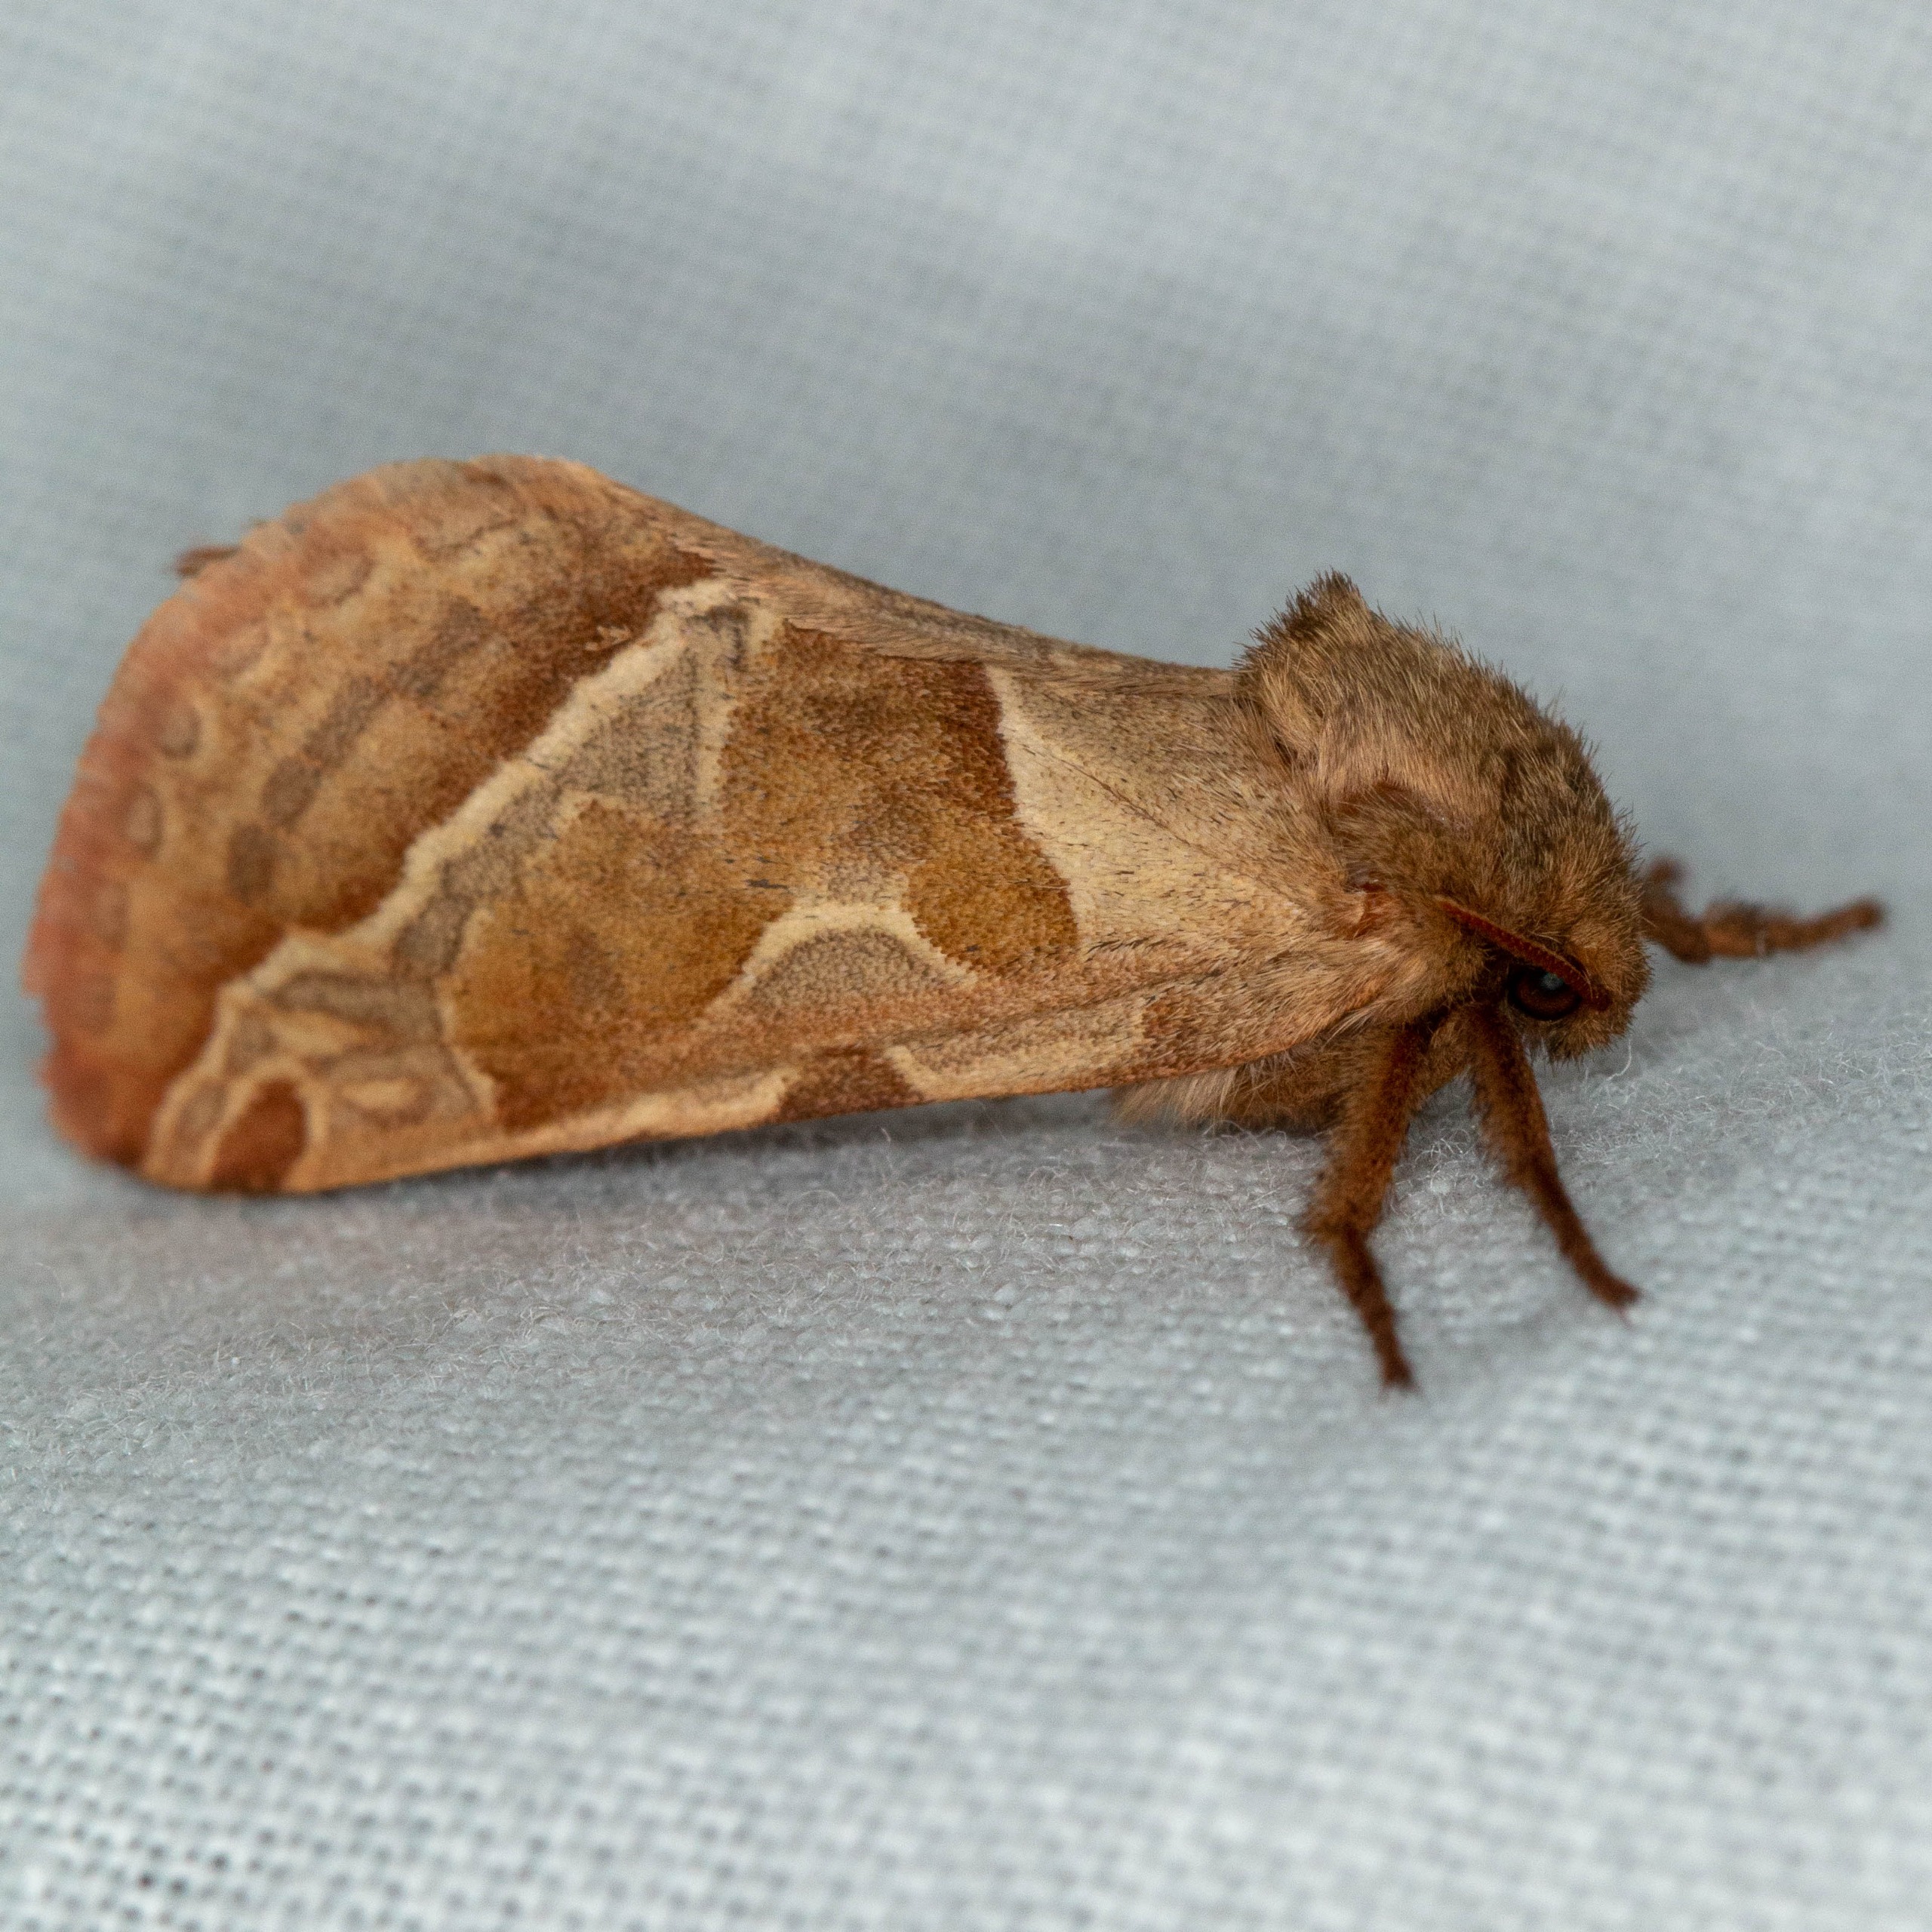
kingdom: Animalia
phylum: Arthropoda
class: Insecta
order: Lepidoptera
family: Hepialidae
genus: Triodia
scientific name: Triodia sylvina
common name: Skræpperodæder
